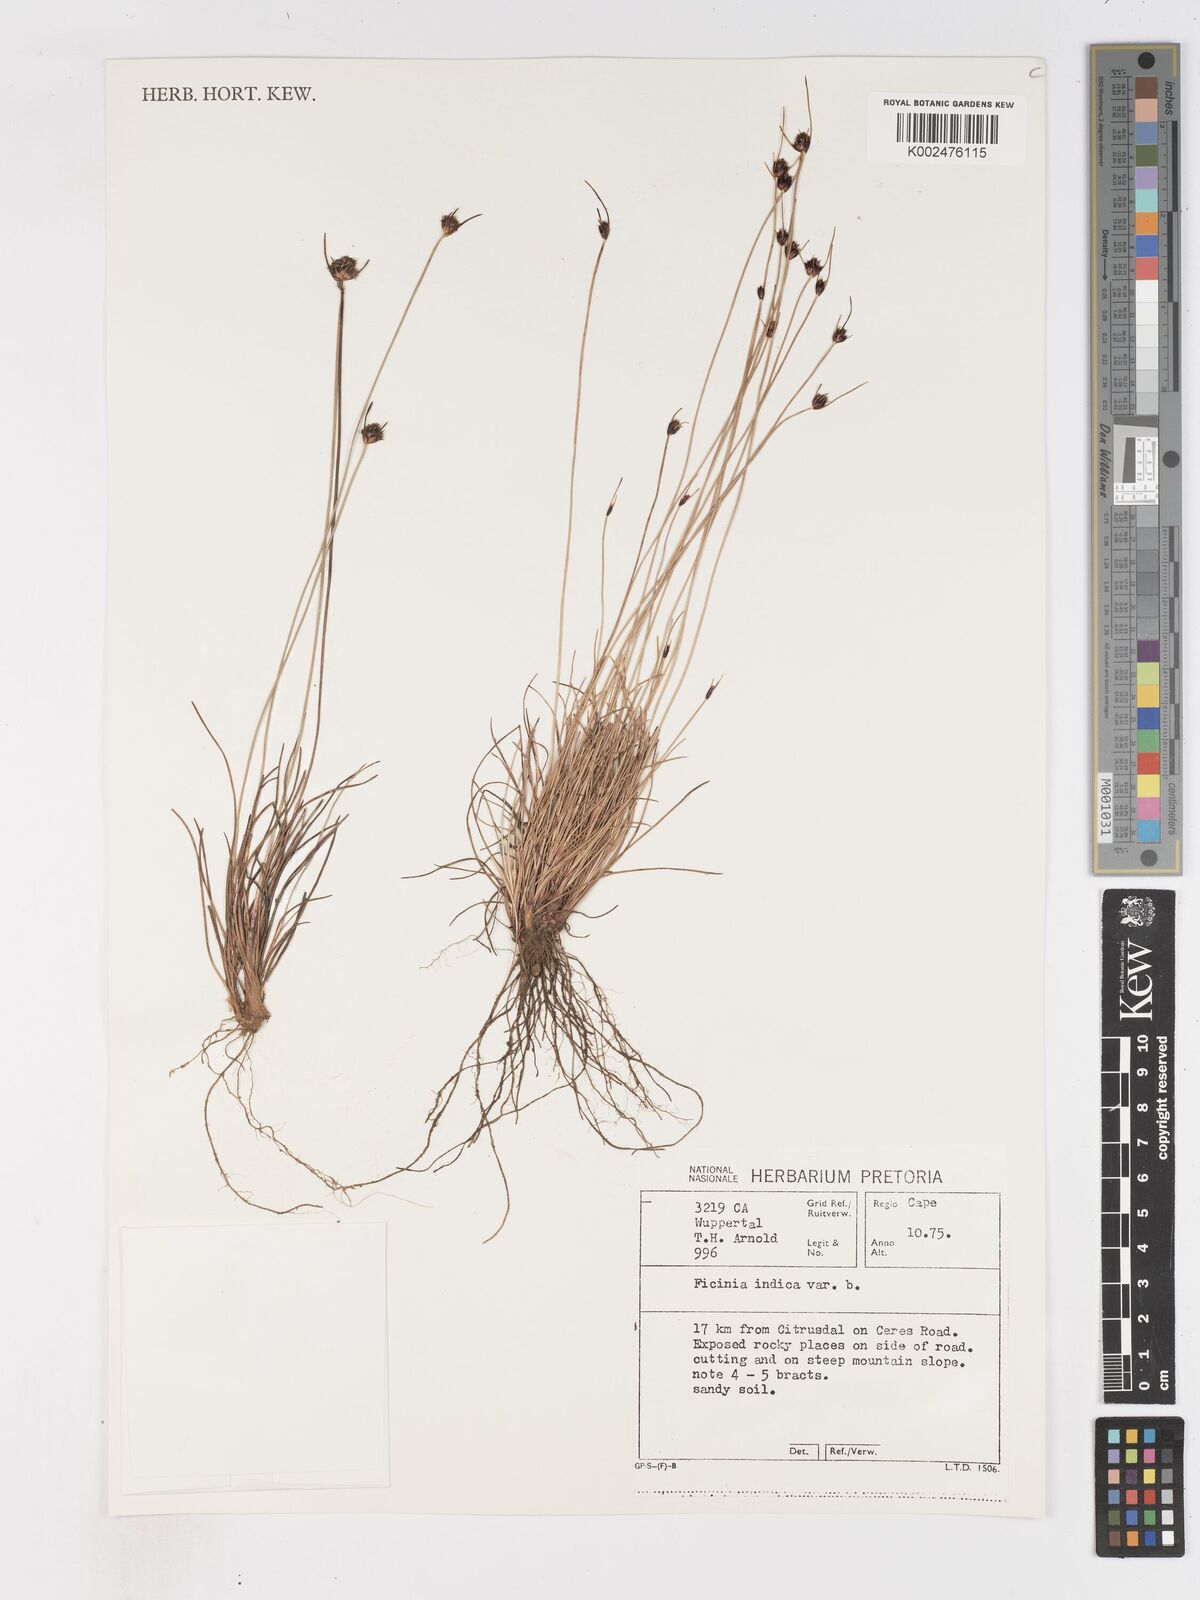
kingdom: Plantae
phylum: Tracheophyta
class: Liliopsida
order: Poales
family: Cyperaceae
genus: Ficinia
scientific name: Ficinia indica
